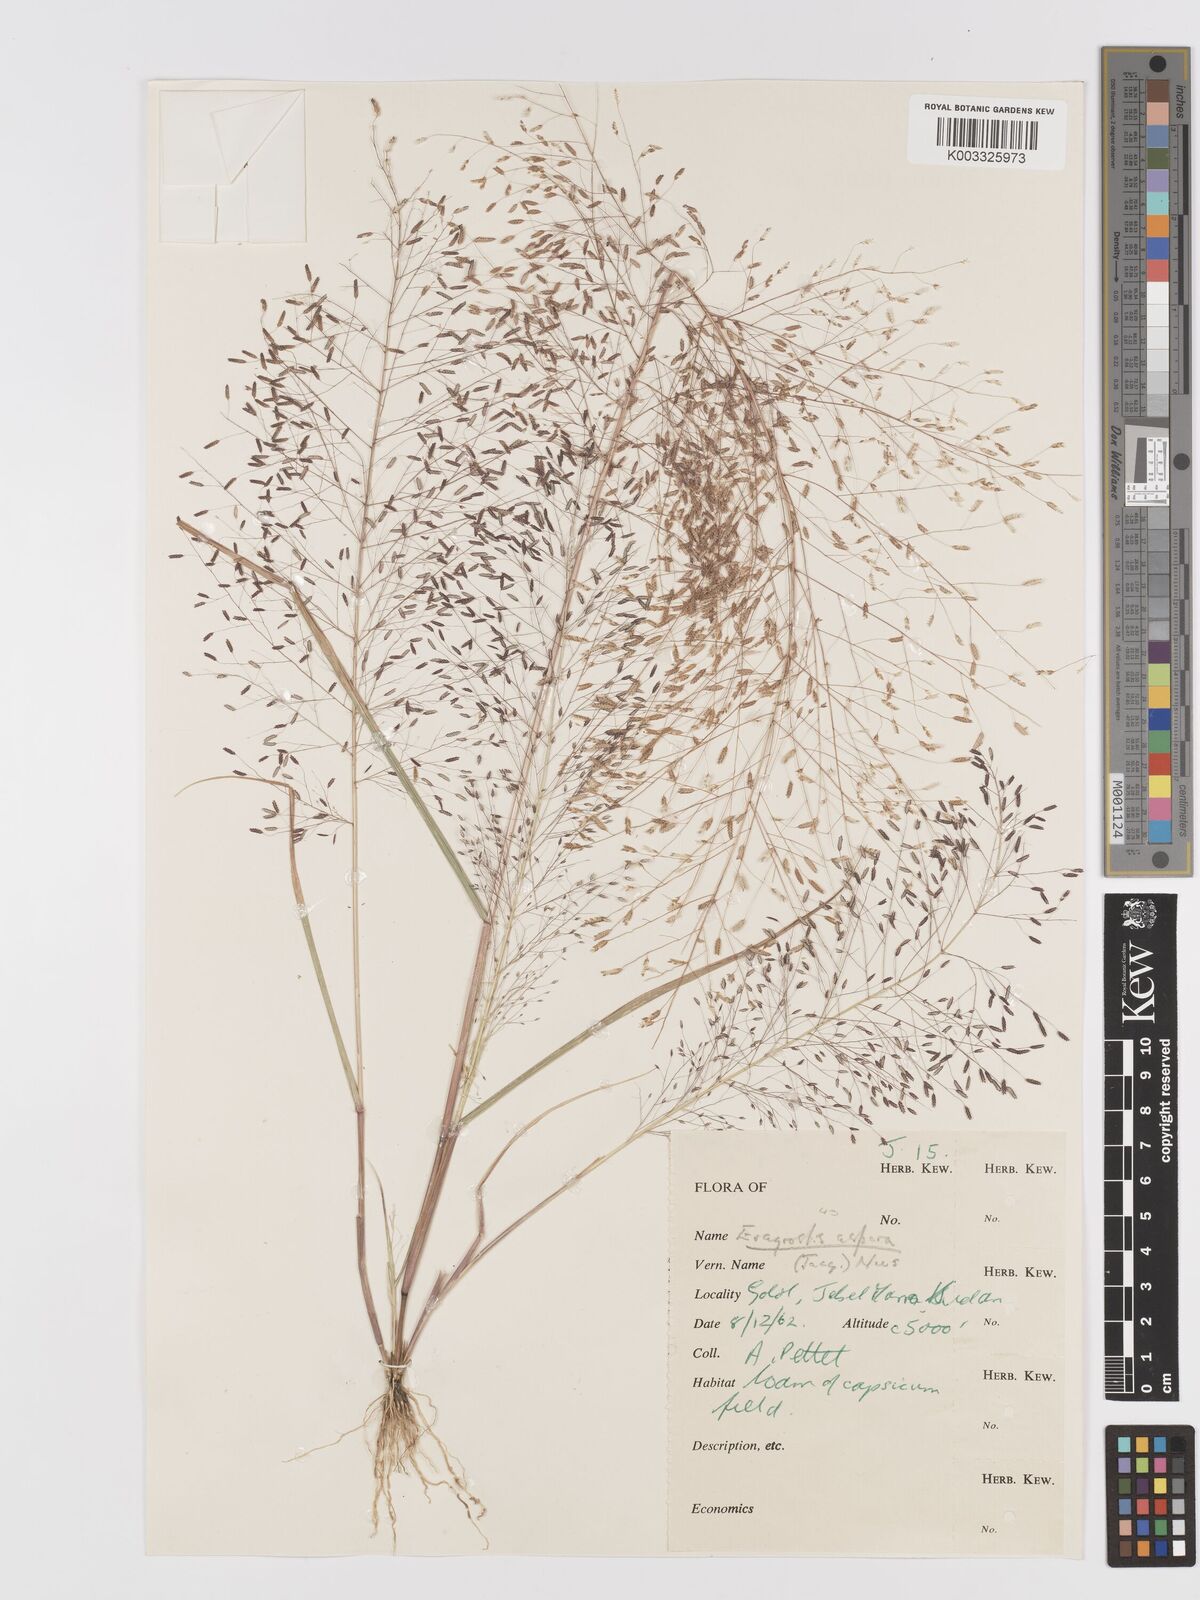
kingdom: Plantae
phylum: Tracheophyta
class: Liliopsida
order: Poales
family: Poaceae
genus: Eragrostis
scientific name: Eragrostis aspera
